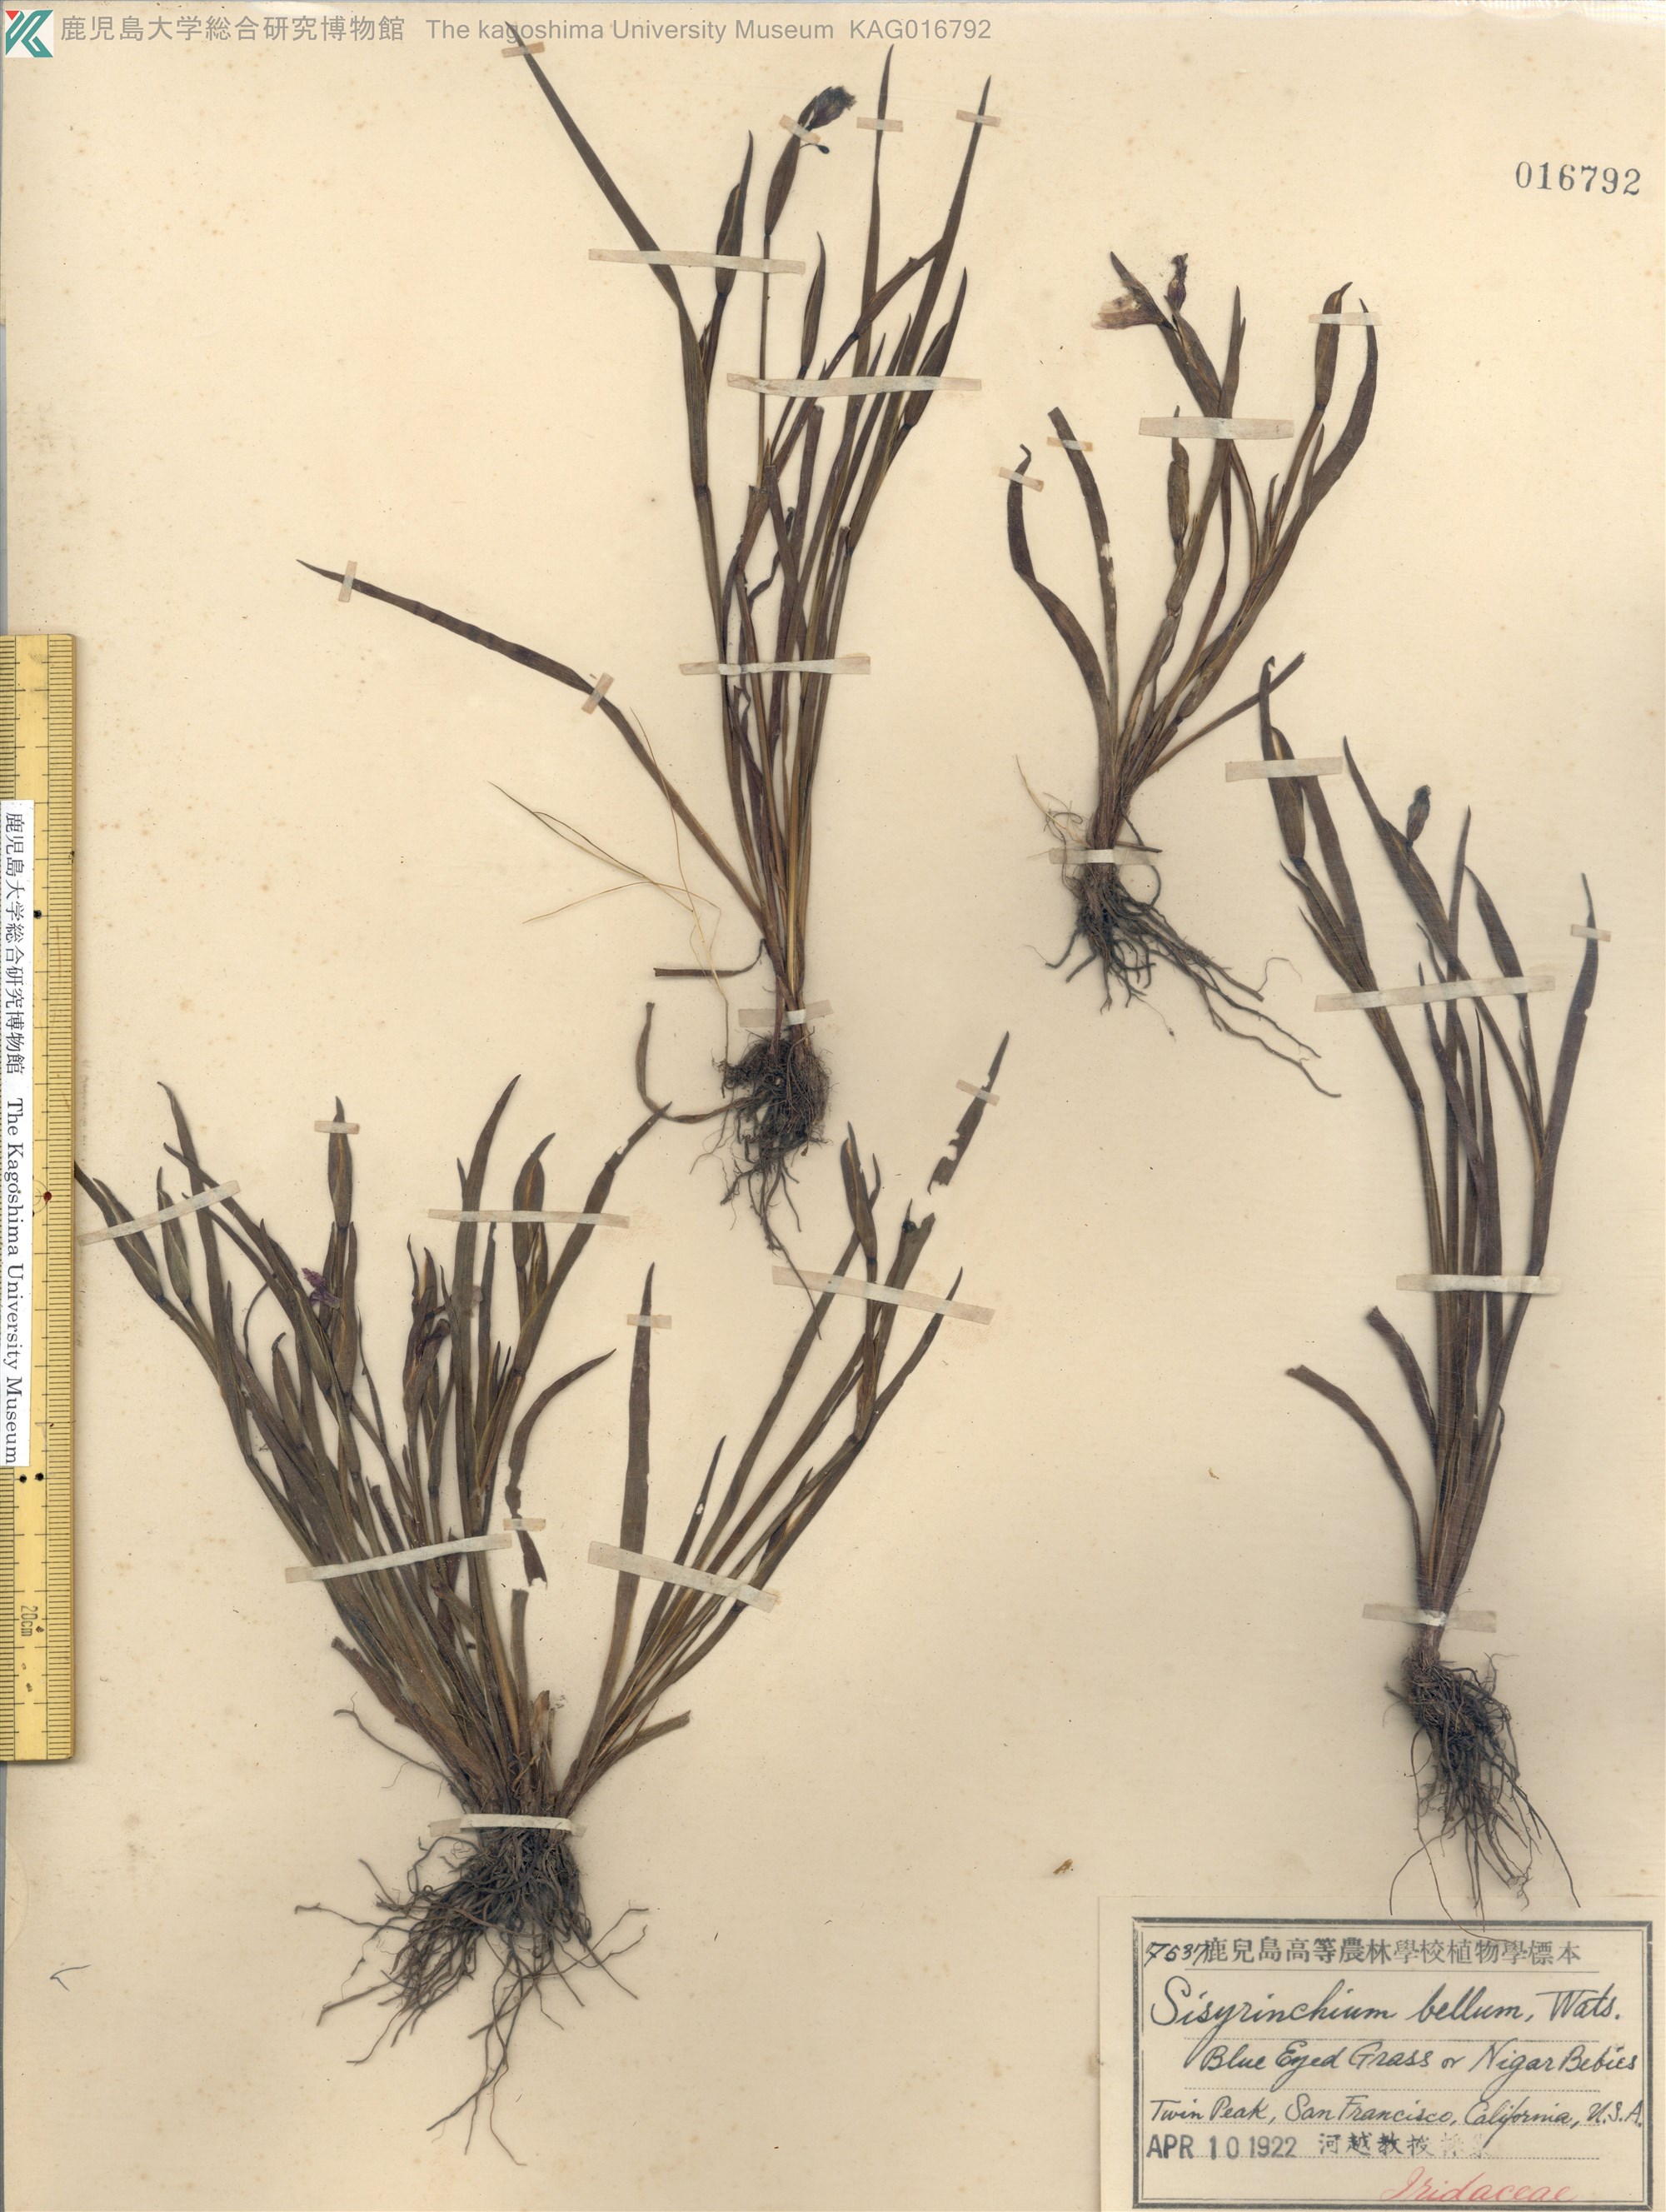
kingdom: Plantae
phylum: Tracheophyta
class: Liliopsida
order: Asparagales
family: Iridaceae
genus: Sisyrinchium
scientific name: Sisyrinchium bellum
